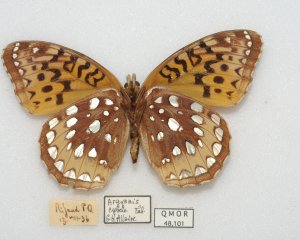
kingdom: Animalia
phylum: Arthropoda
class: Insecta
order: Lepidoptera
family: Nymphalidae
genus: Speyeria
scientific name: Speyeria cybele
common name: Great Spangled Fritillary
